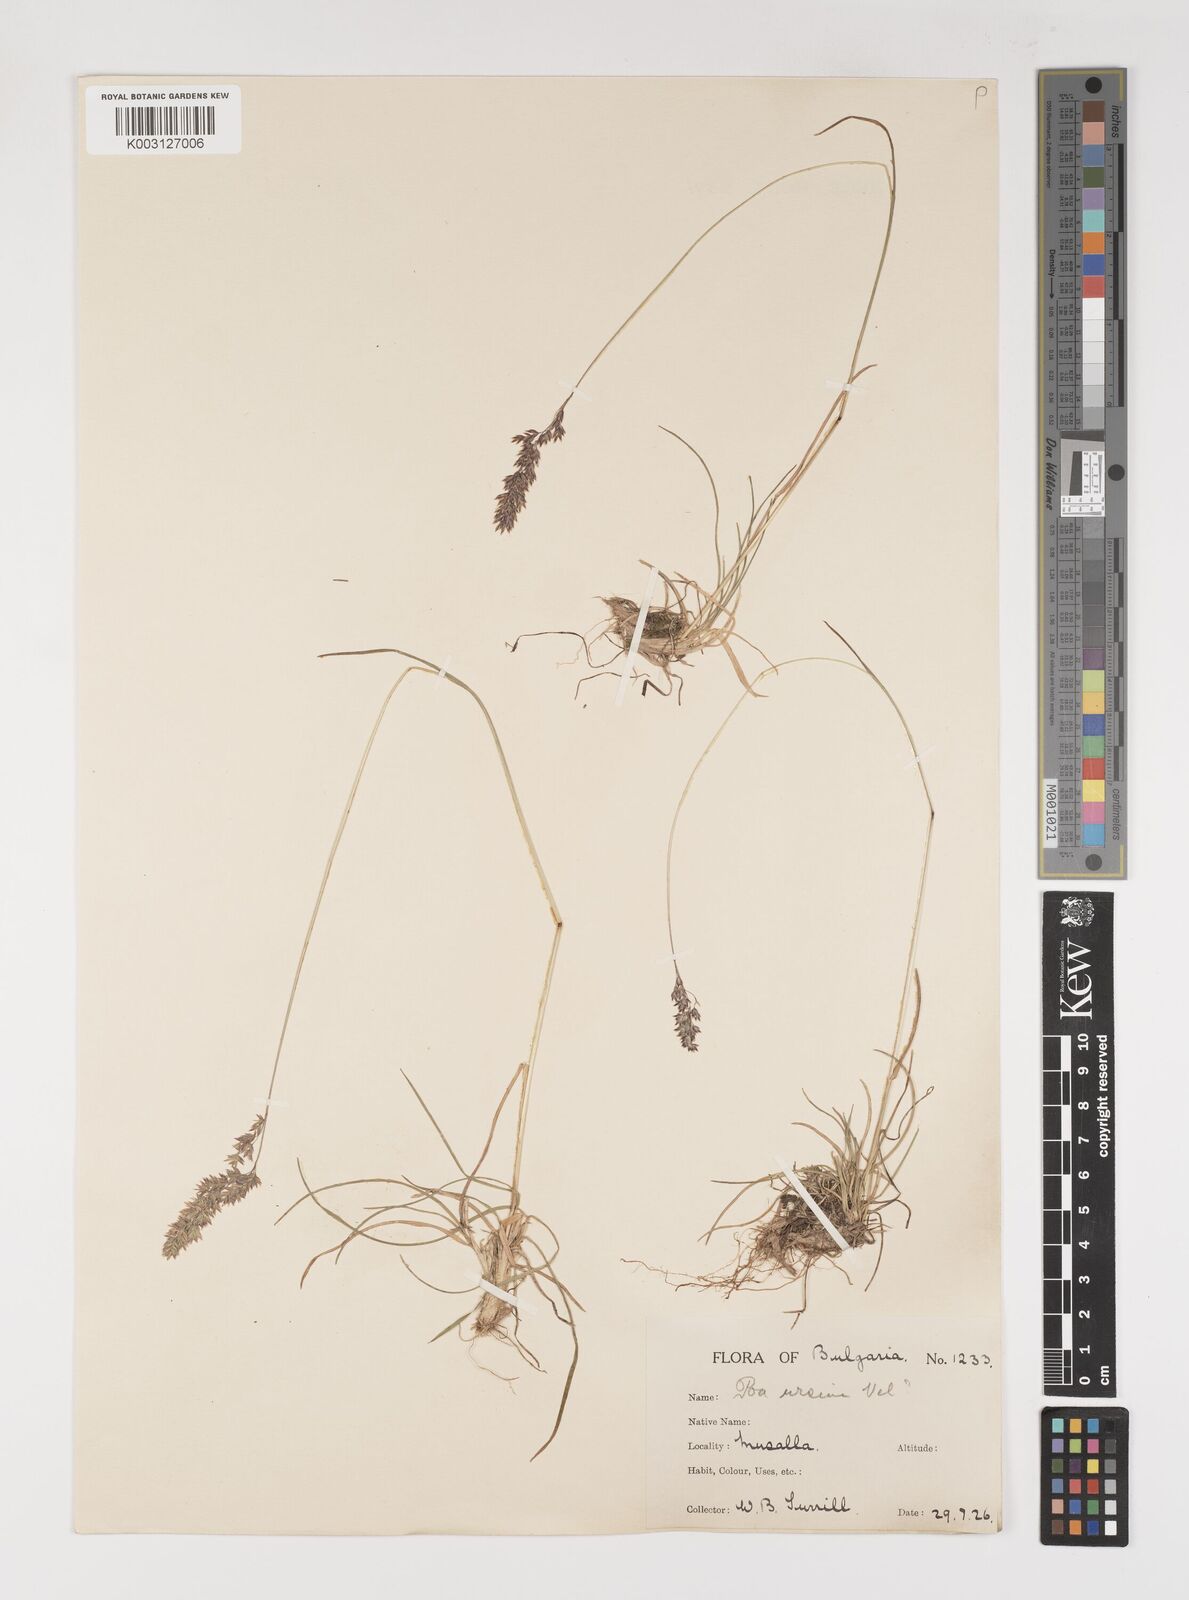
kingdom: Plantae
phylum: Tracheophyta
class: Liliopsida
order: Poales
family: Poaceae
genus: Poa
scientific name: Poa ursina
